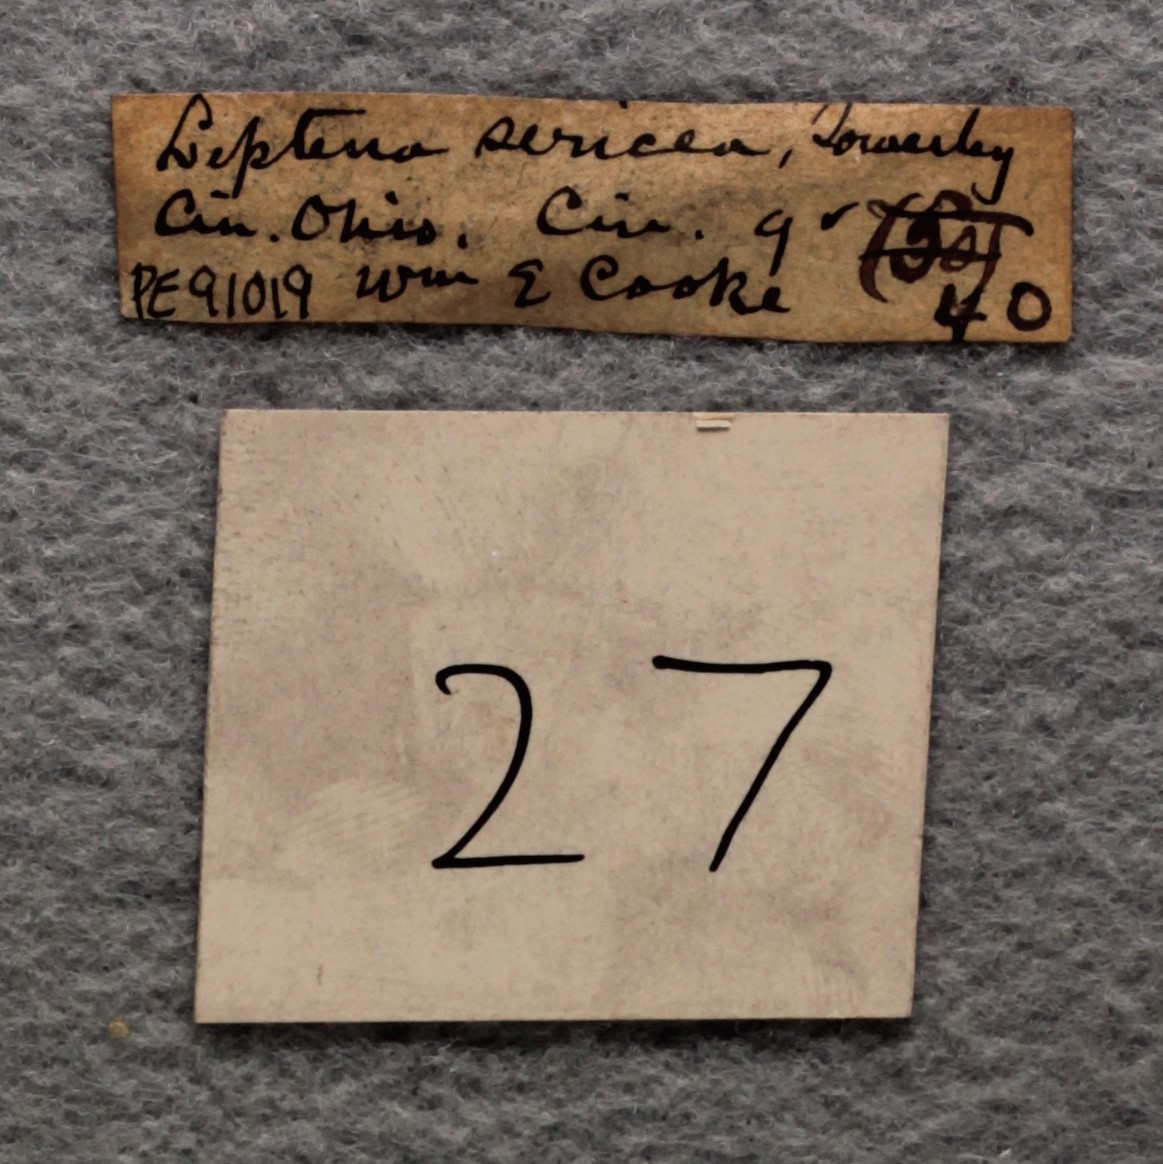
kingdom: Animalia
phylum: Brachiopoda
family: Sowerbyellidae
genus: Sowerbyella
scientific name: Sowerbyella Leptaena sericea
